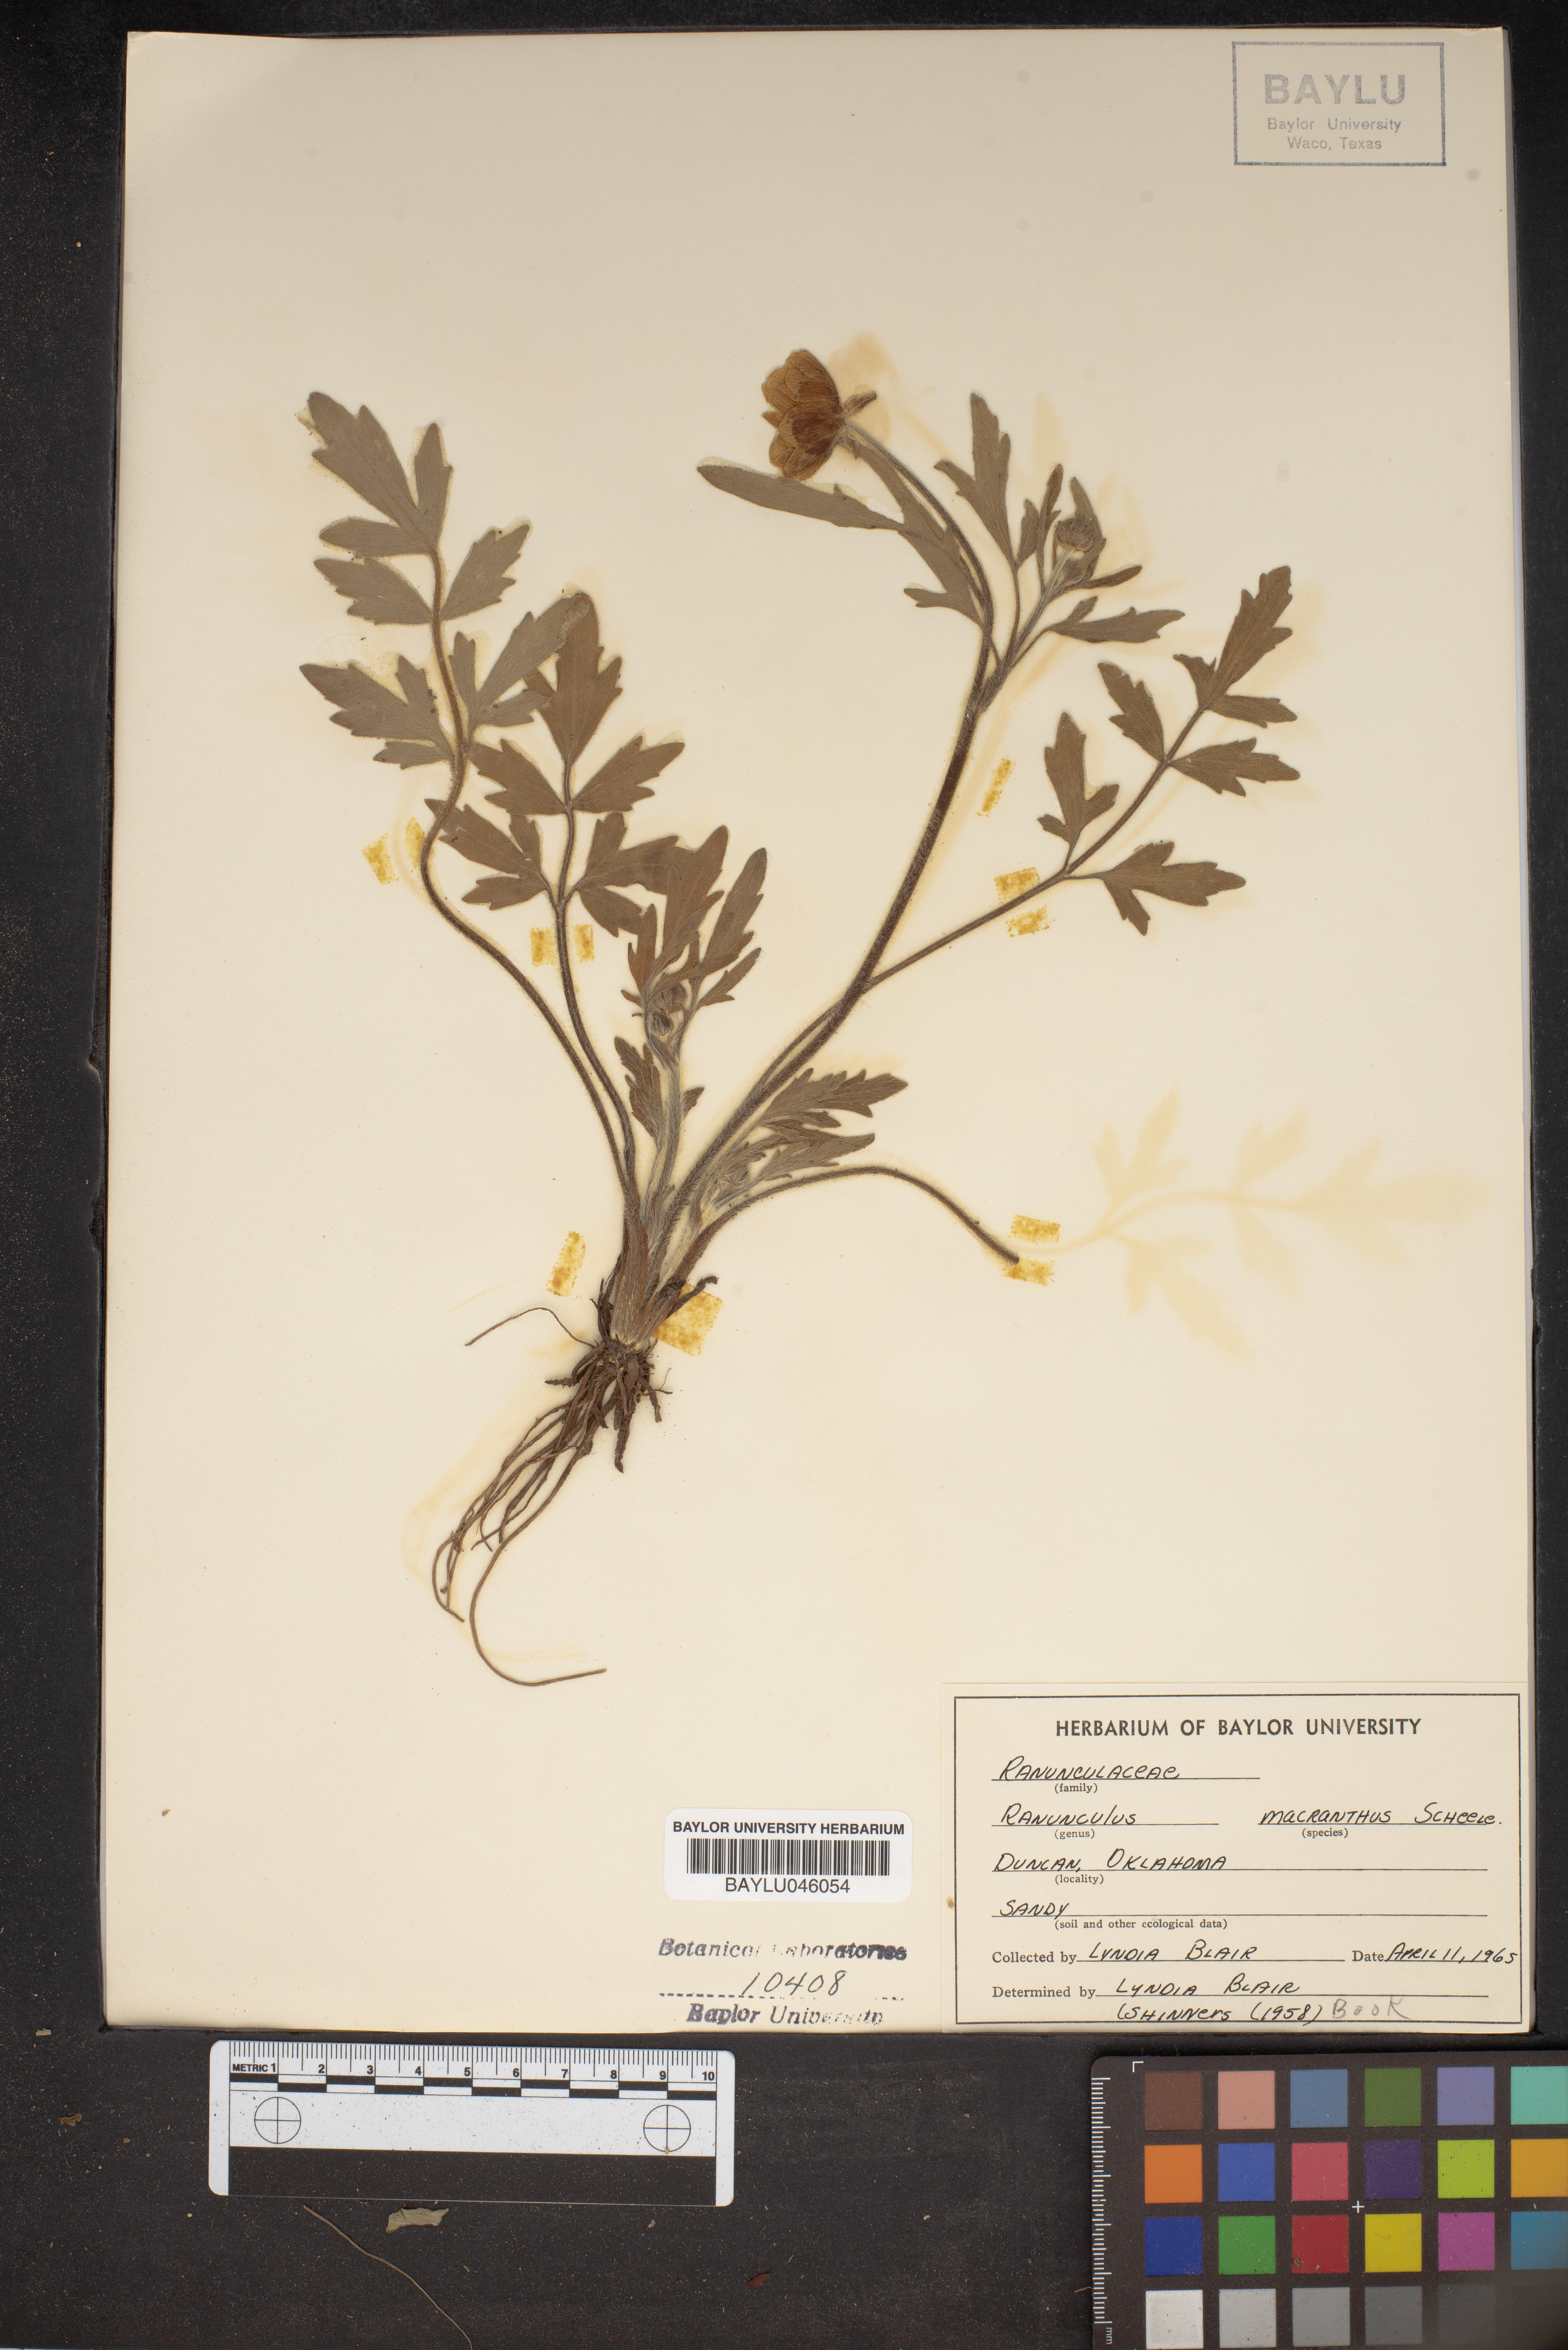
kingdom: Plantae
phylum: Tracheophyta
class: Magnoliopsida
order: Ranunculales
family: Ranunculaceae
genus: Ranunculus
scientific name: Ranunculus macranthus
